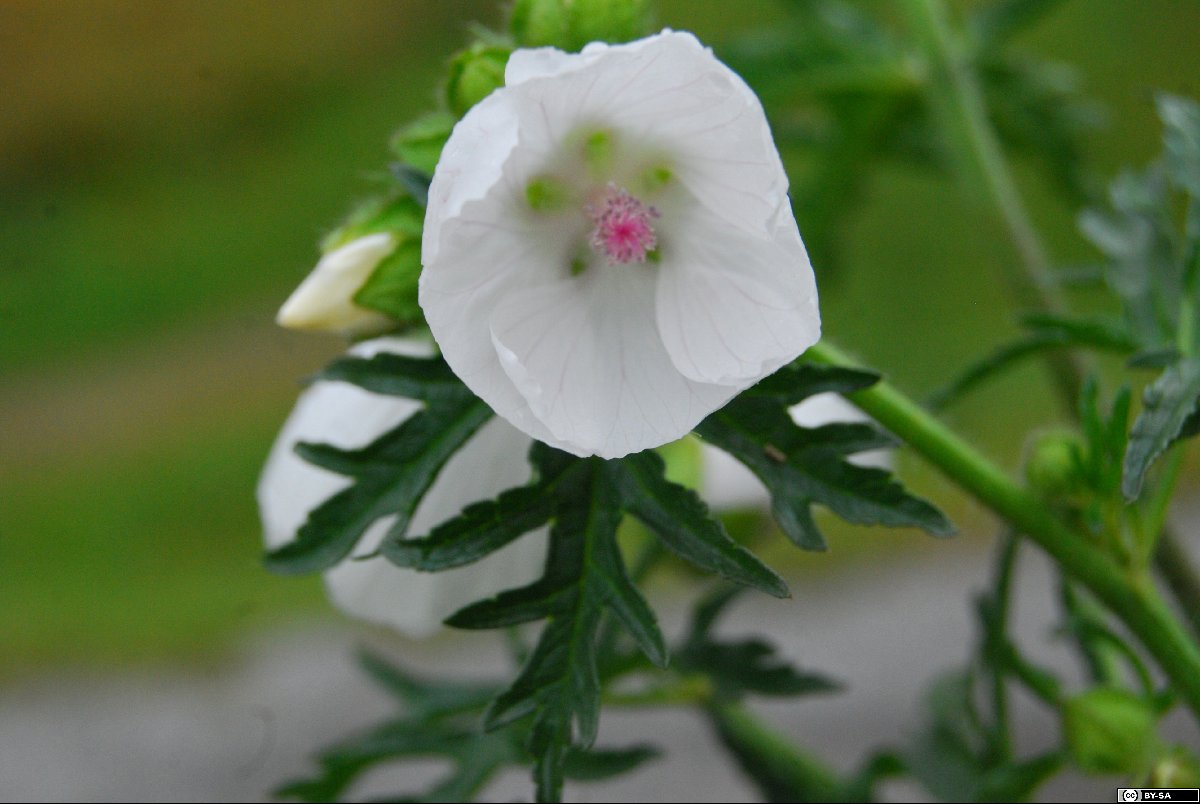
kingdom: Plantae
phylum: Tracheophyta
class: Magnoliopsida
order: Malvales
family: Malvaceae
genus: Malva
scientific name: Malva moschata
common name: Musk mallow
